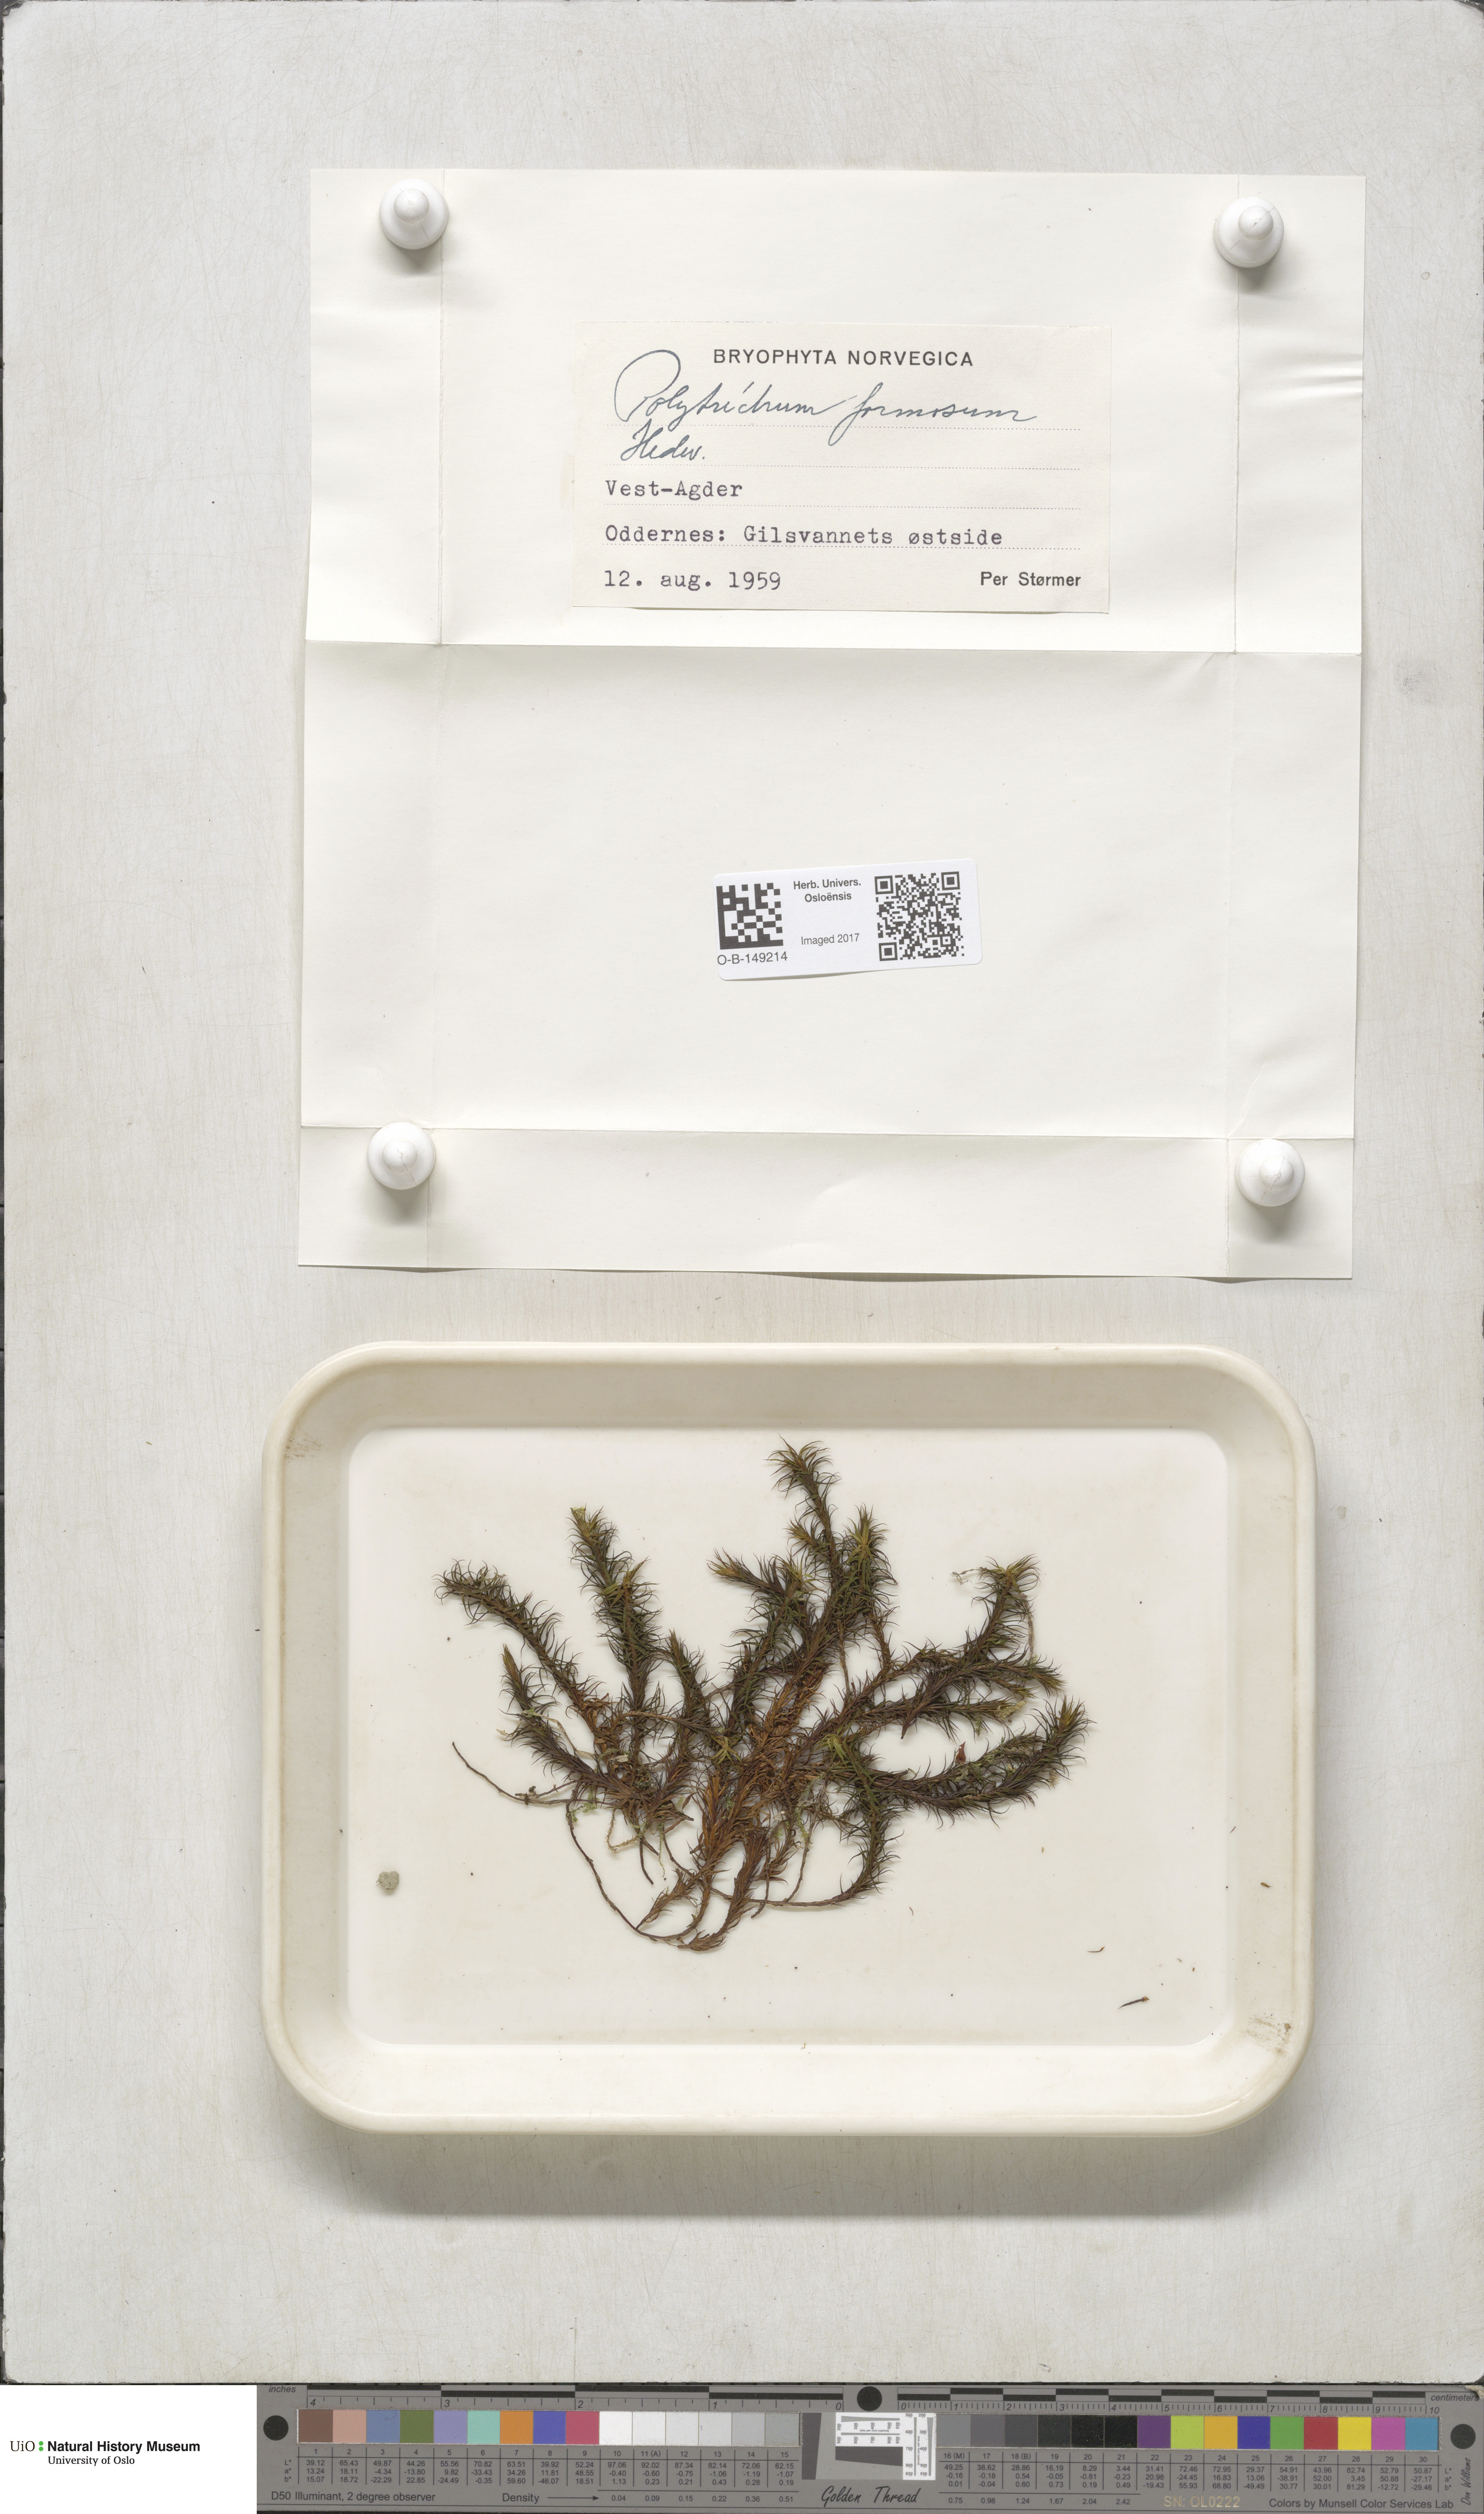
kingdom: Plantae
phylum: Bryophyta
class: Polytrichopsida
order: Polytrichales
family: Polytrichaceae
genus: Polytrichum
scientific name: Polytrichum formosum
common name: Bank haircap moss
